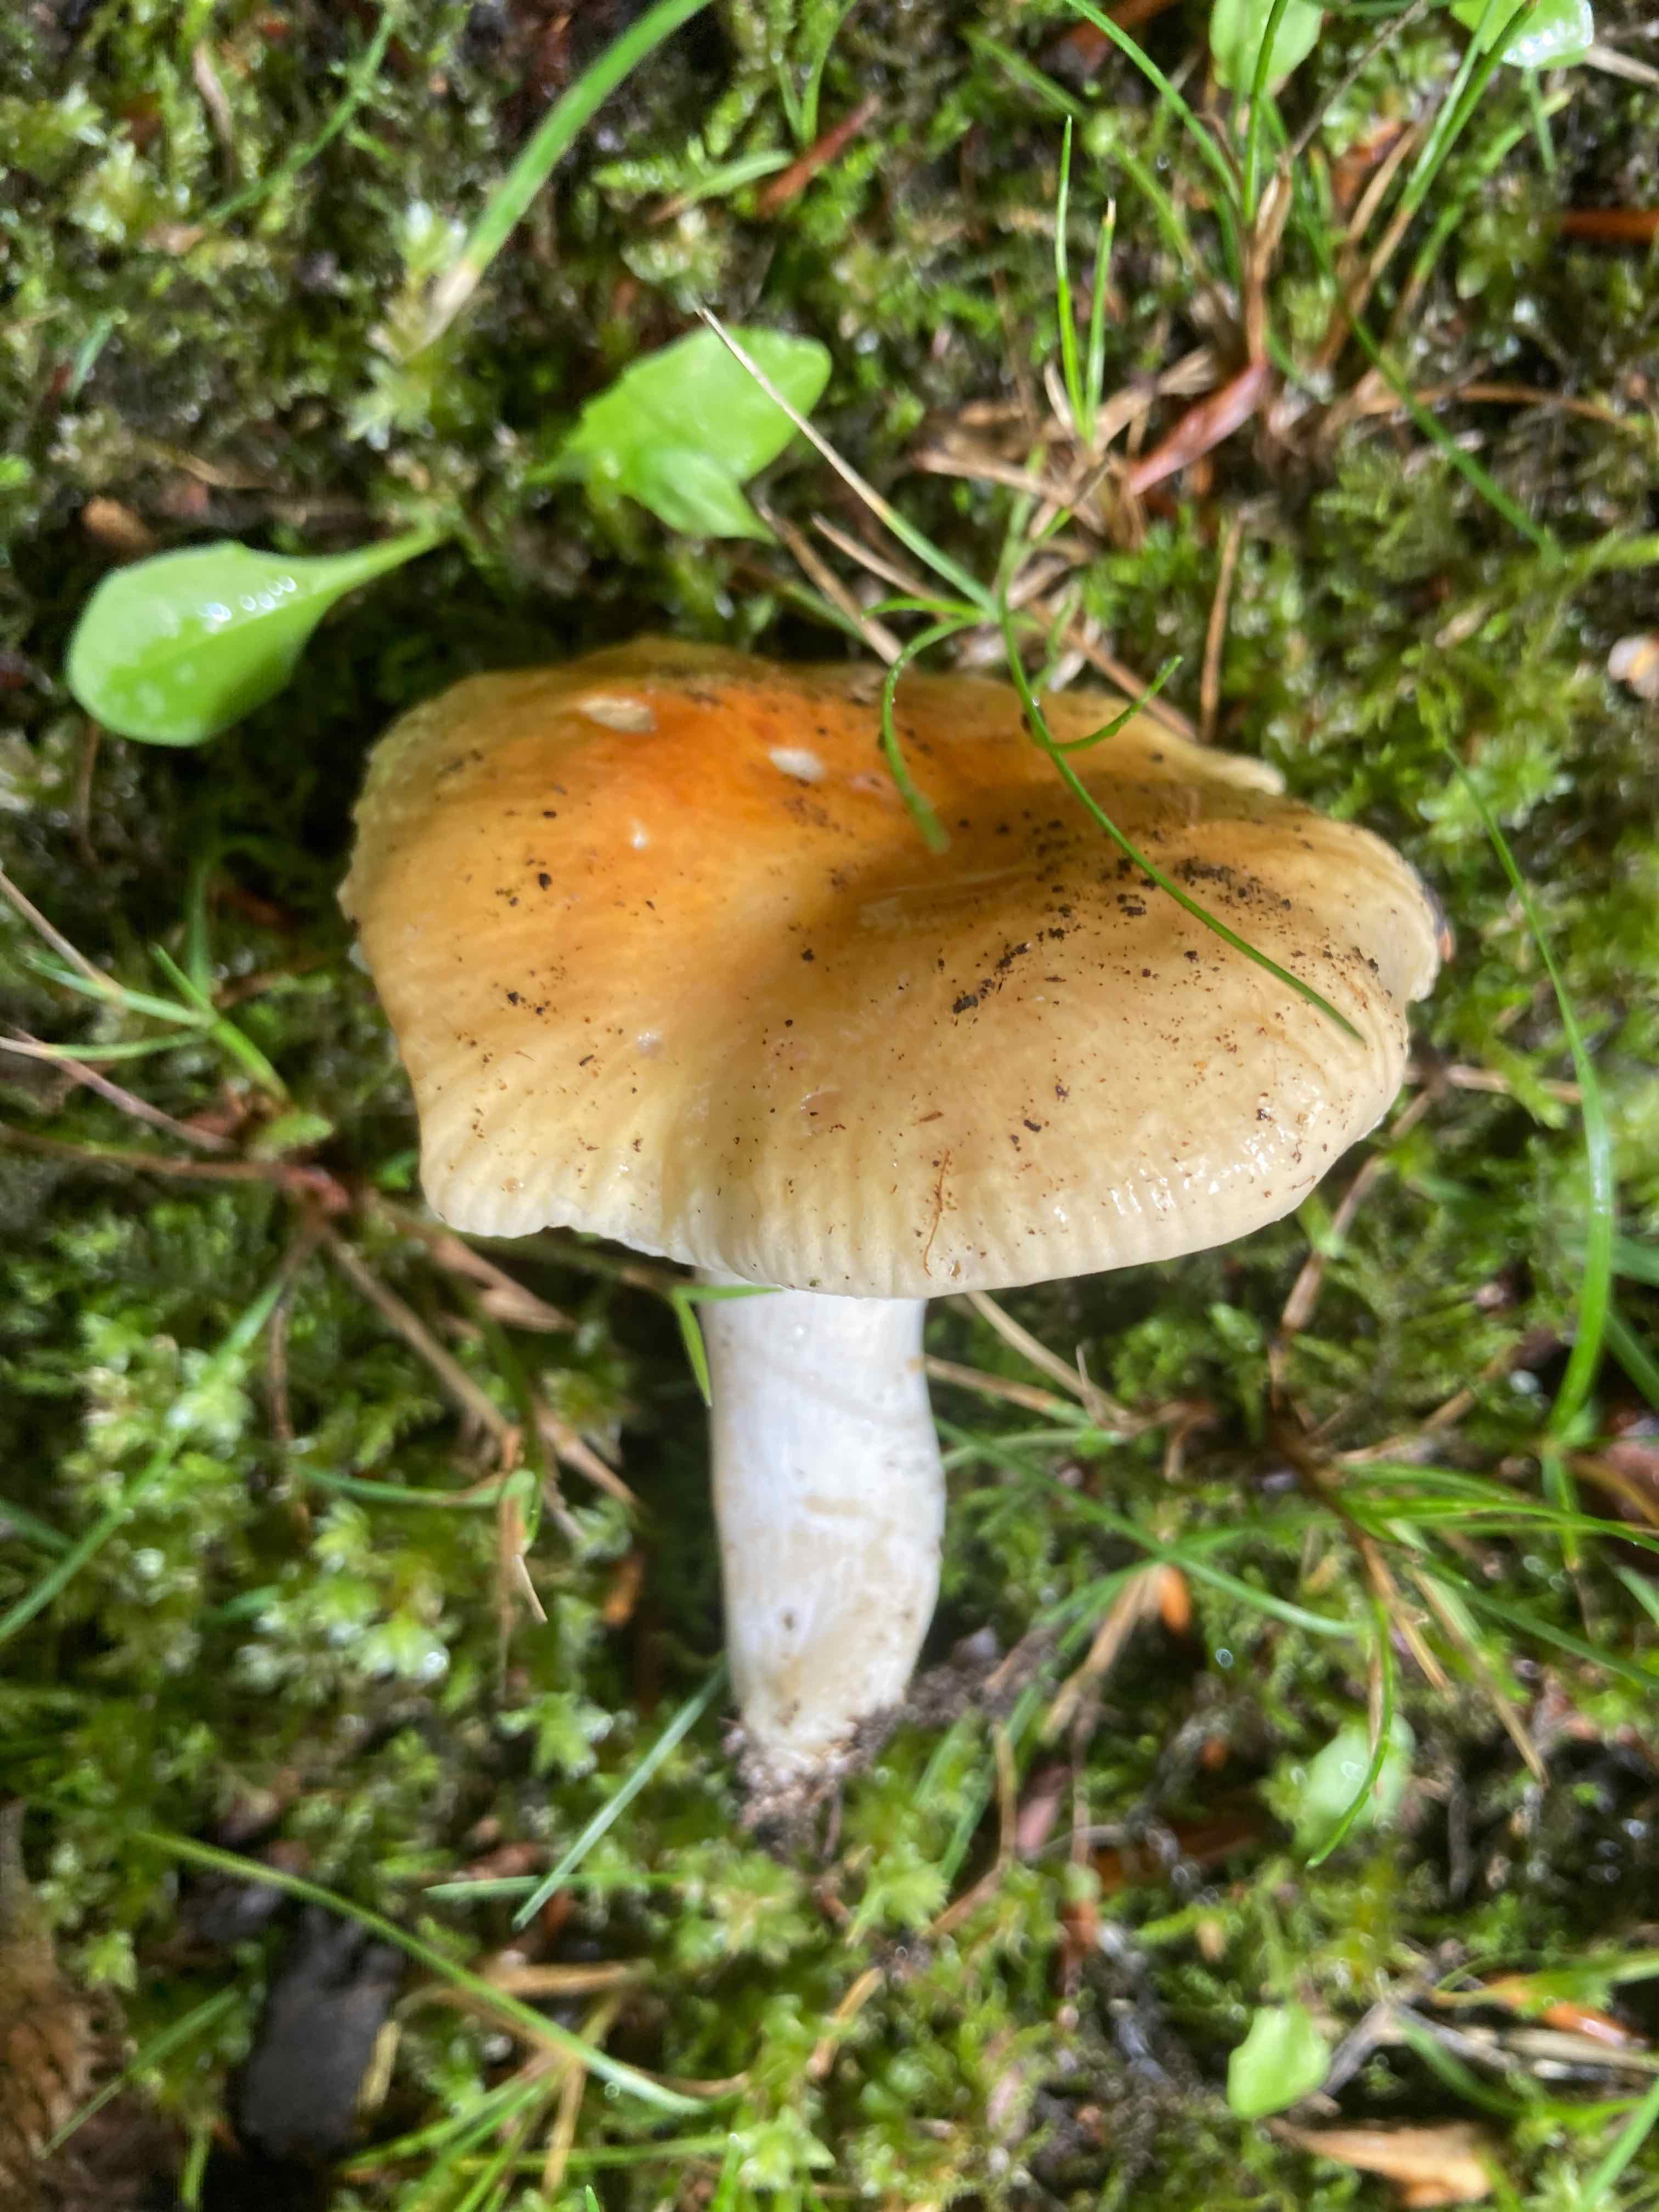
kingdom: Fungi
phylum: Basidiomycota
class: Agaricomycetes
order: Russulales
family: Russulaceae
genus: Russula
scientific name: Russula risigallina
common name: abrikos-skørhat
